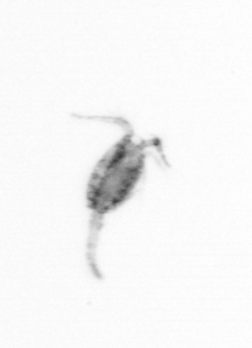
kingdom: Animalia
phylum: Arthropoda
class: Copepoda
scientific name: Copepoda
